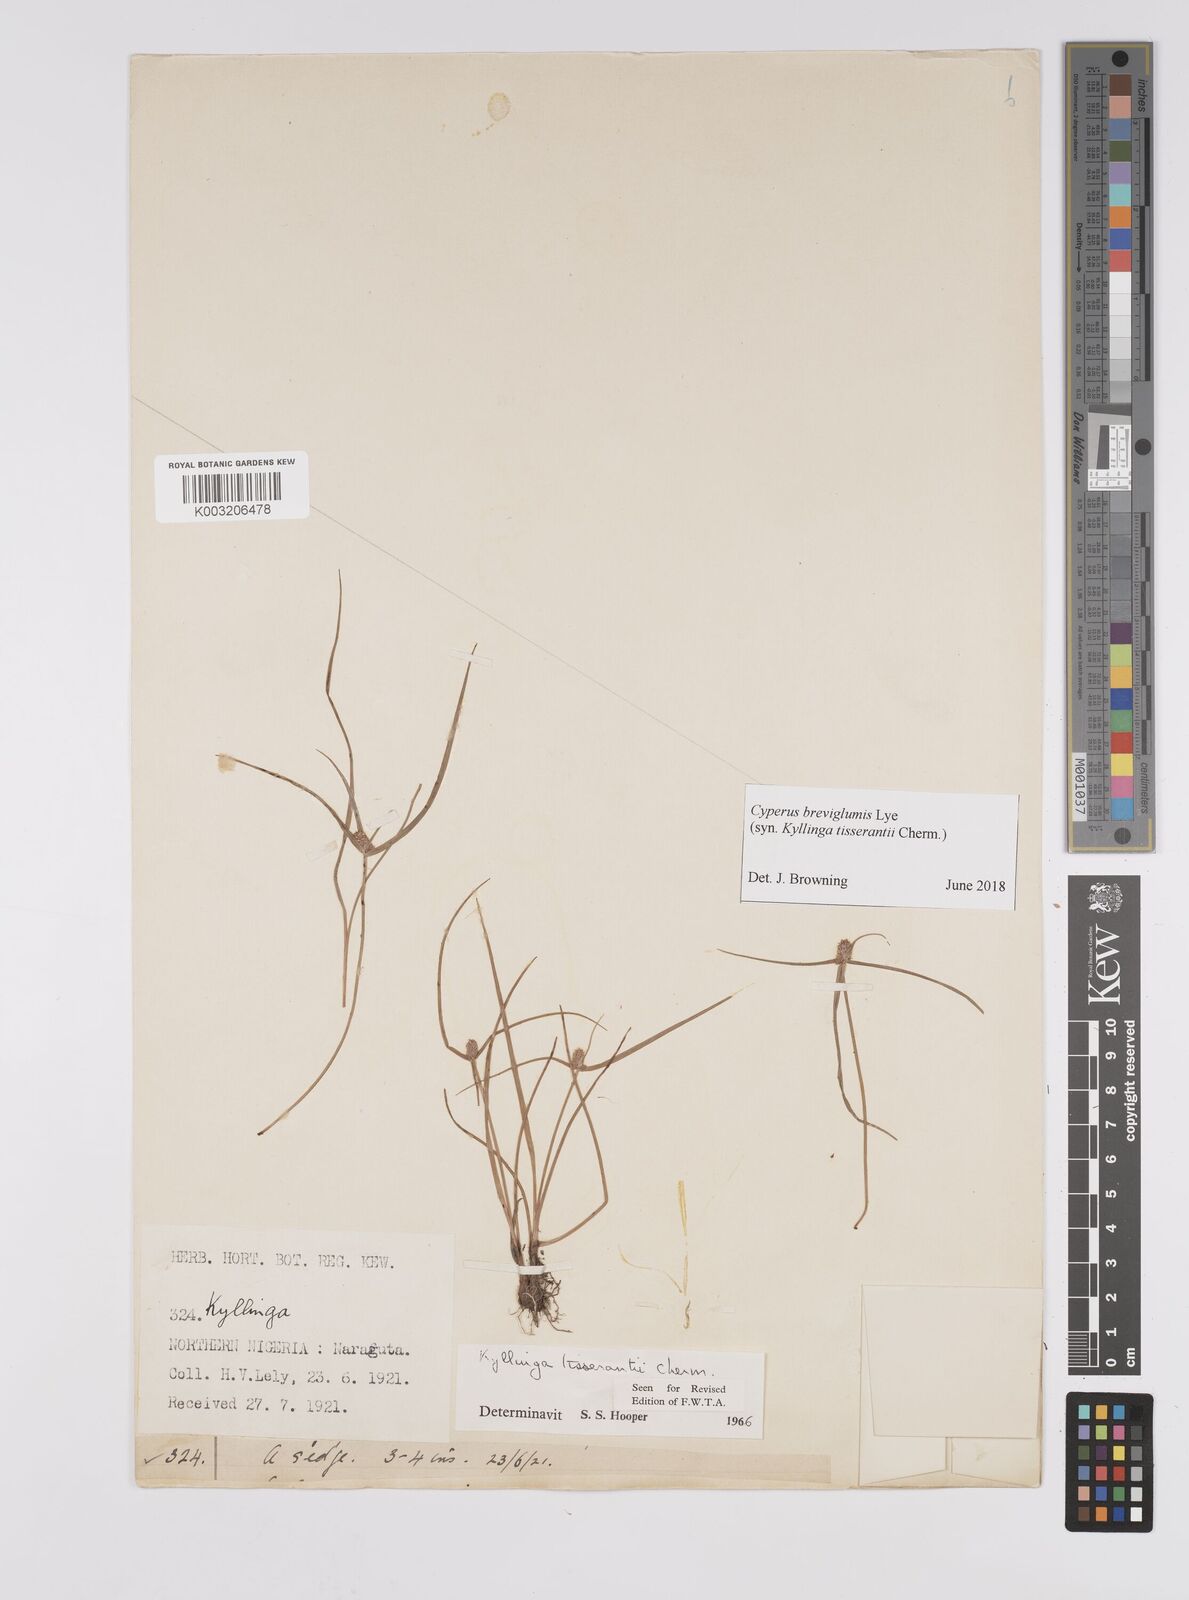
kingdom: Plantae
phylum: Tracheophyta
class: Liliopsida
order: Poales
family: Cyperaceae
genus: Cyperus
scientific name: Cyperus niveus
